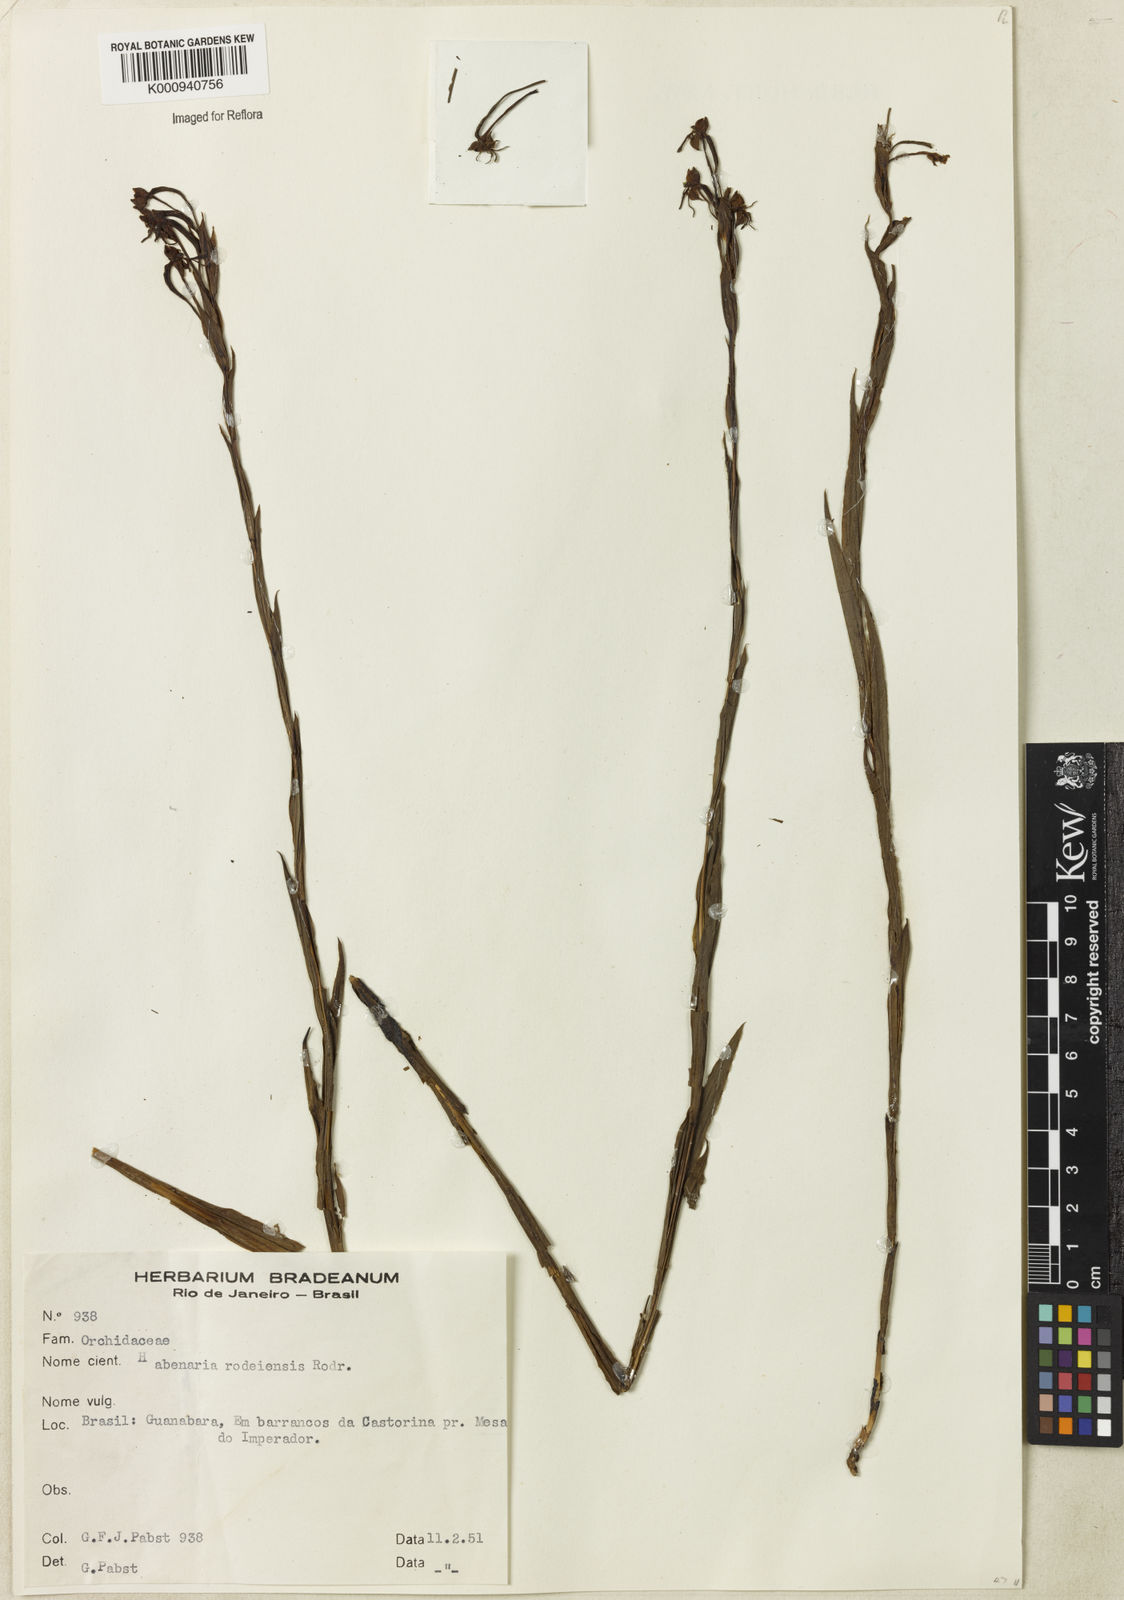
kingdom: Plantae
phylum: Tracheophyta
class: Liliopsida
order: Asparagales
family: Orchidaceae
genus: Habenaria
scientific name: Habenaria rodeiensis
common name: Bog orchid
